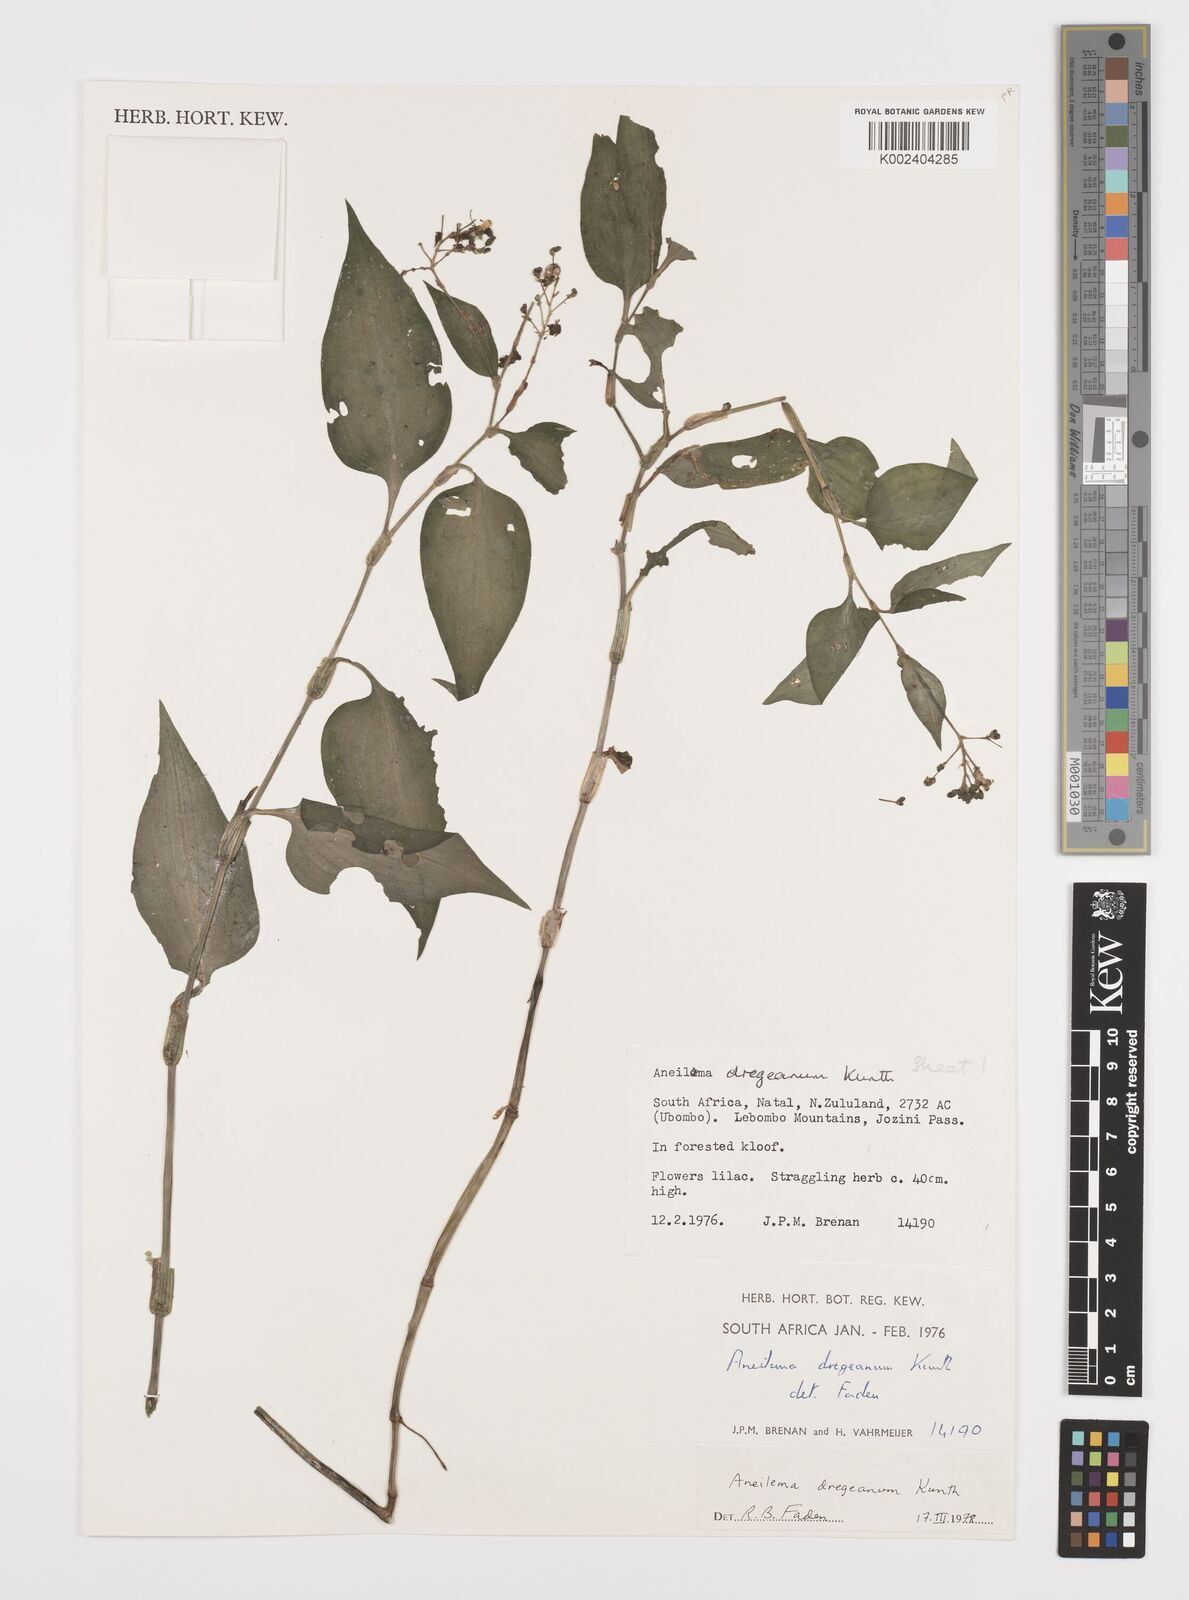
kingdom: Plantae
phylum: Tracheophyta
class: Liliopsida
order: Commelinales
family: Commelinaceae
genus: Aneilema
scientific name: Aneilema dregeanum
